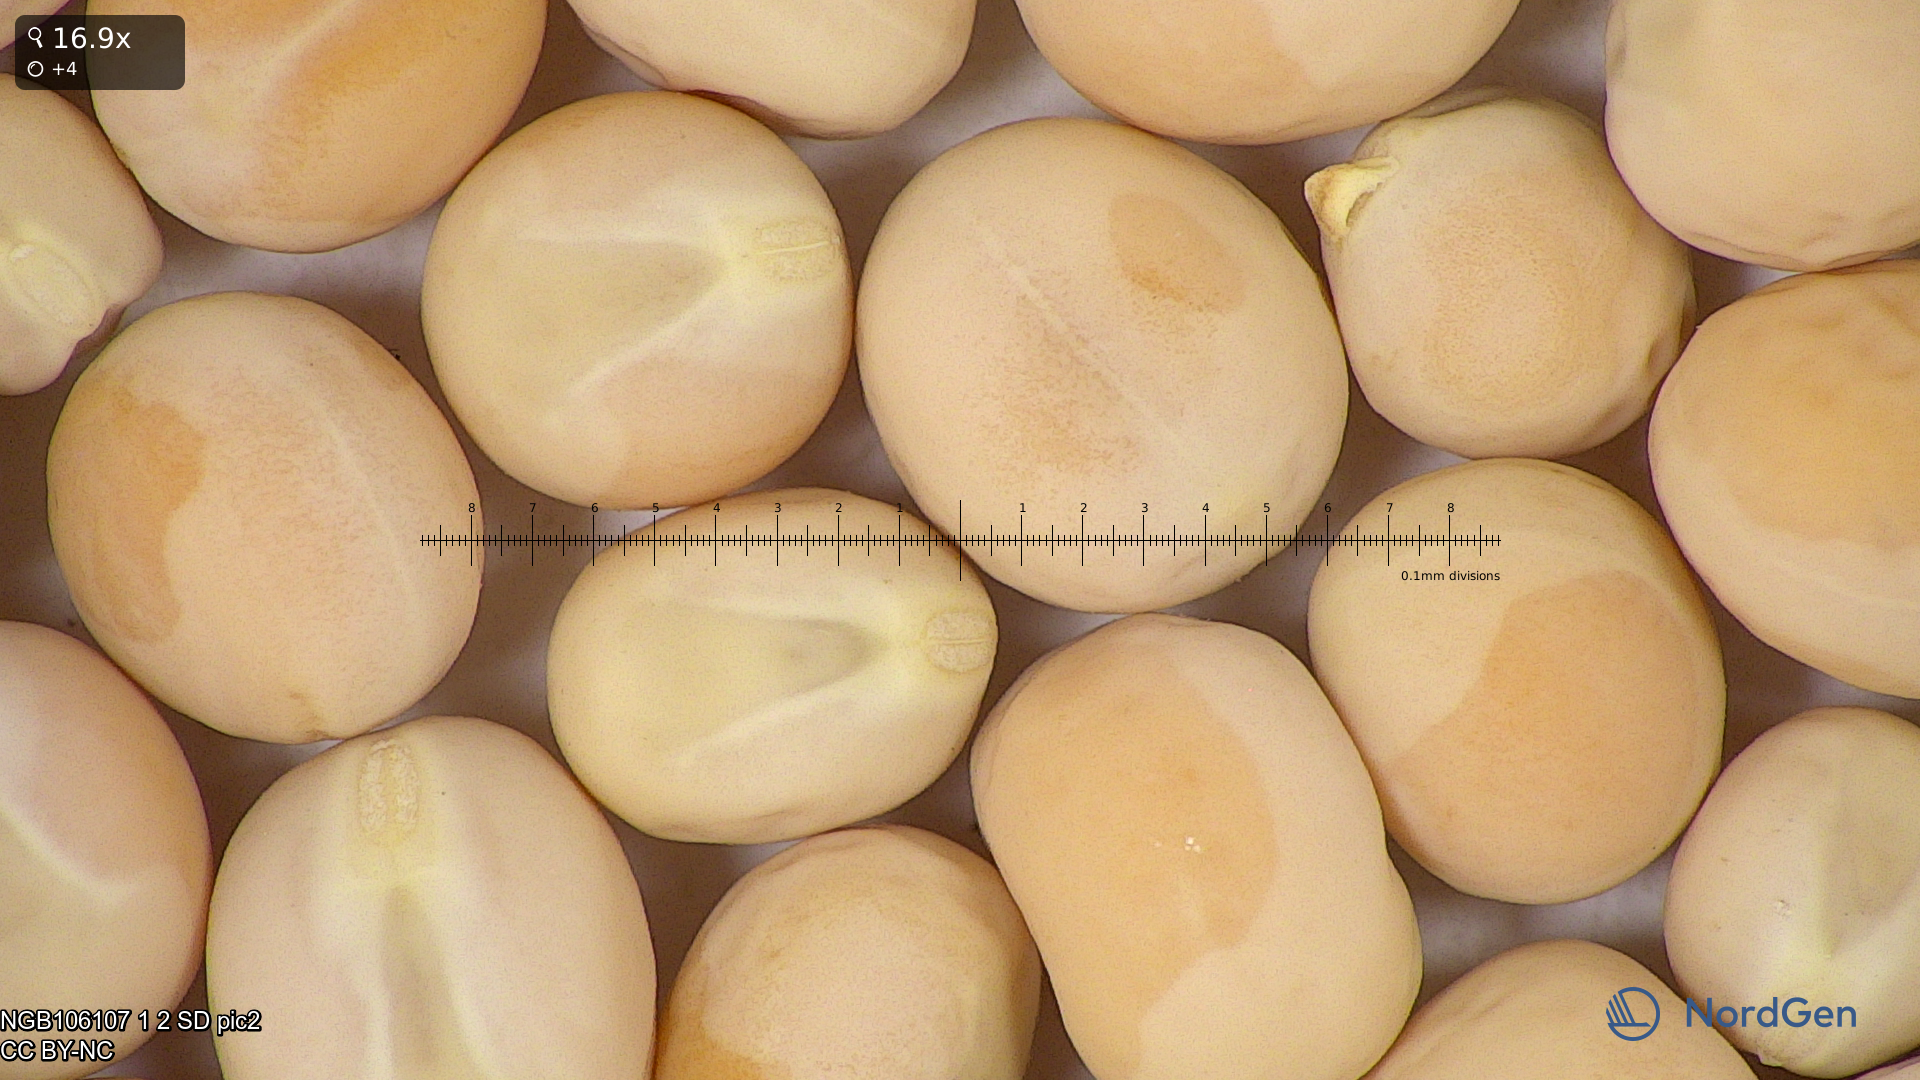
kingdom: Plantae
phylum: Tracheophyta
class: Magnoliopsida
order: Fabales
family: Fabaceae
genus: Lathyrus
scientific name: Lathyrus oleraceus
